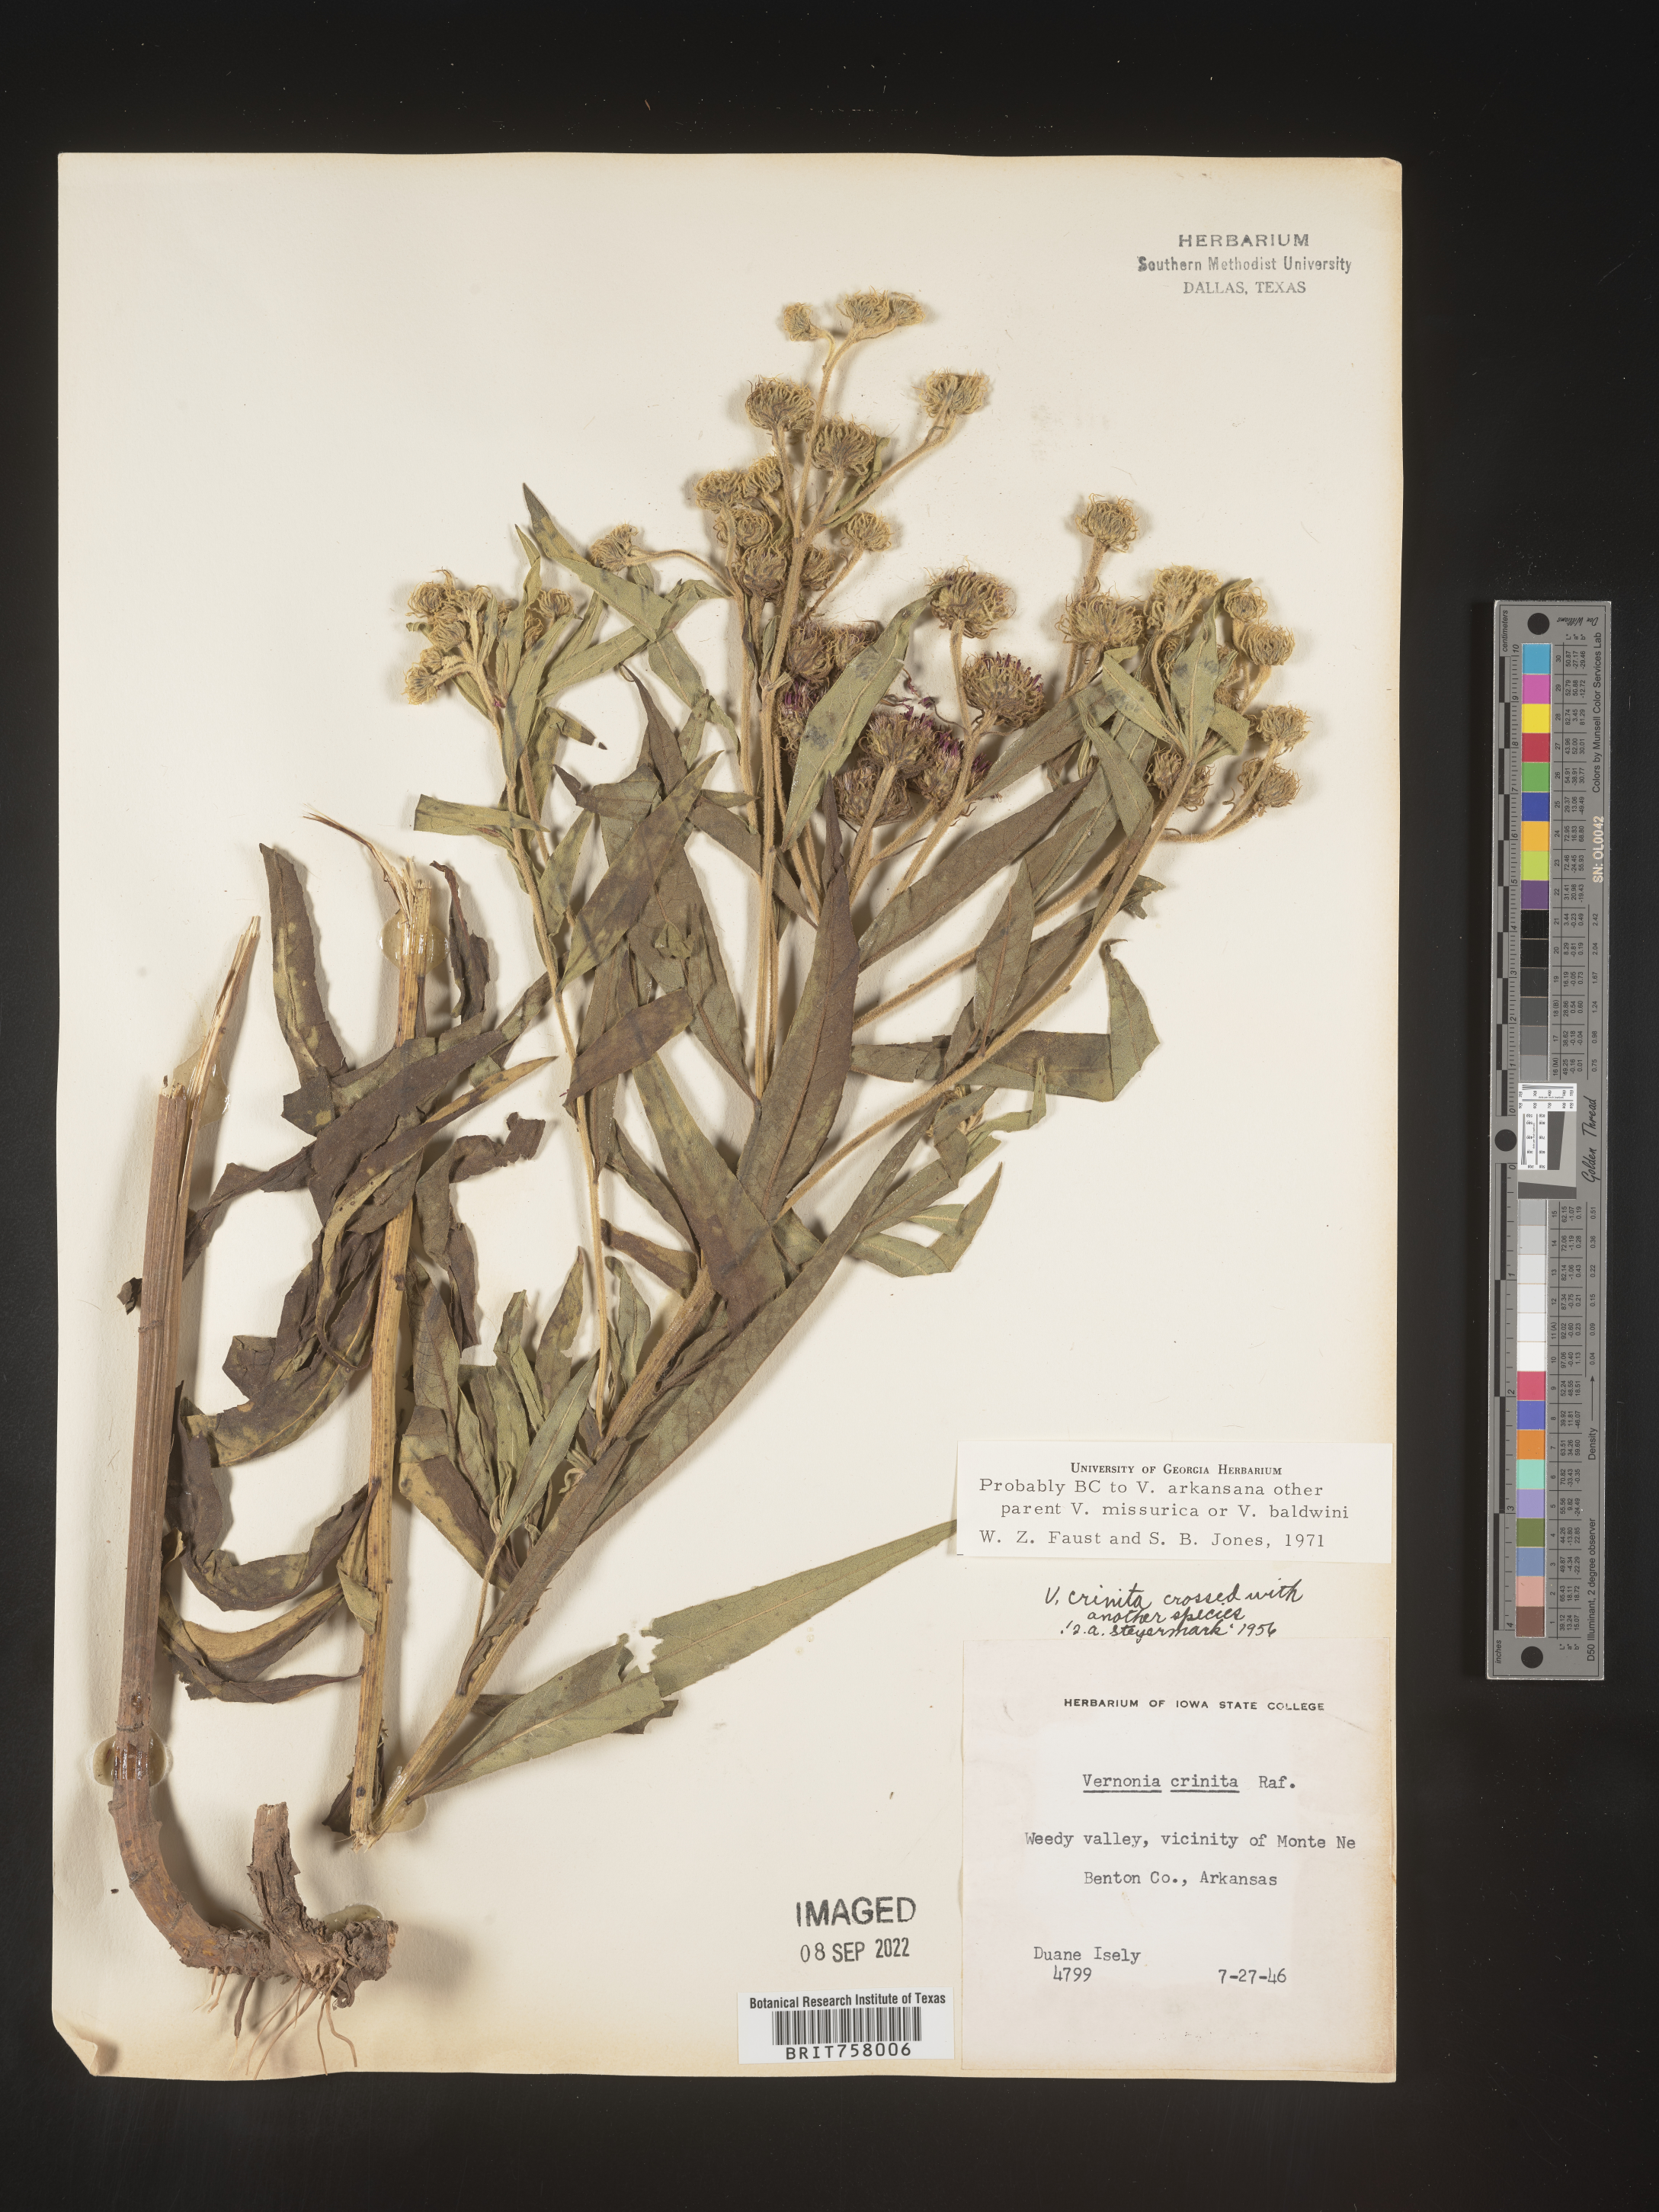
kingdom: Plantae
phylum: Tracheophyta
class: Magnoliopsida
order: Asterales
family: Asteraceae
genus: Vernonia
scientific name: Vernonia arkansana
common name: Ozark ironweed
